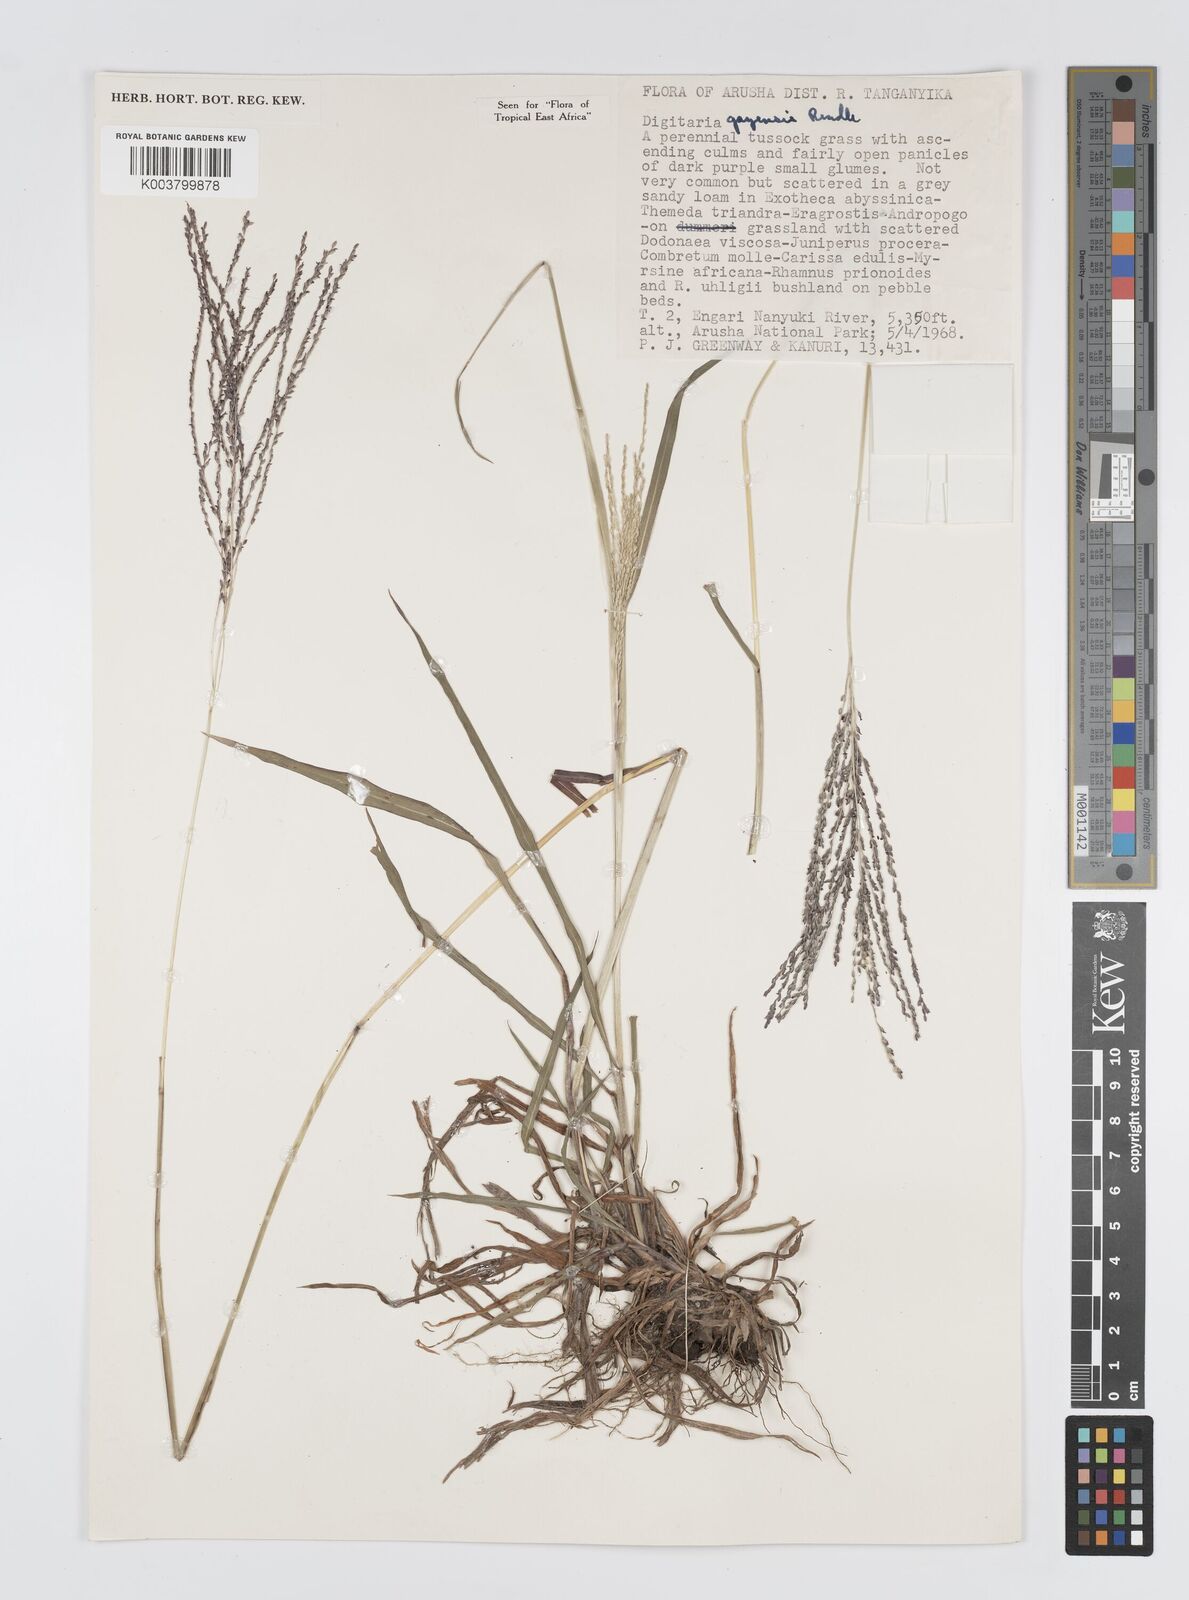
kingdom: Plantae
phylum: Tracheophyta
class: Liliopsida
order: Poales
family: Poaceae
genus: Digitaria
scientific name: Digitaria gazensis
